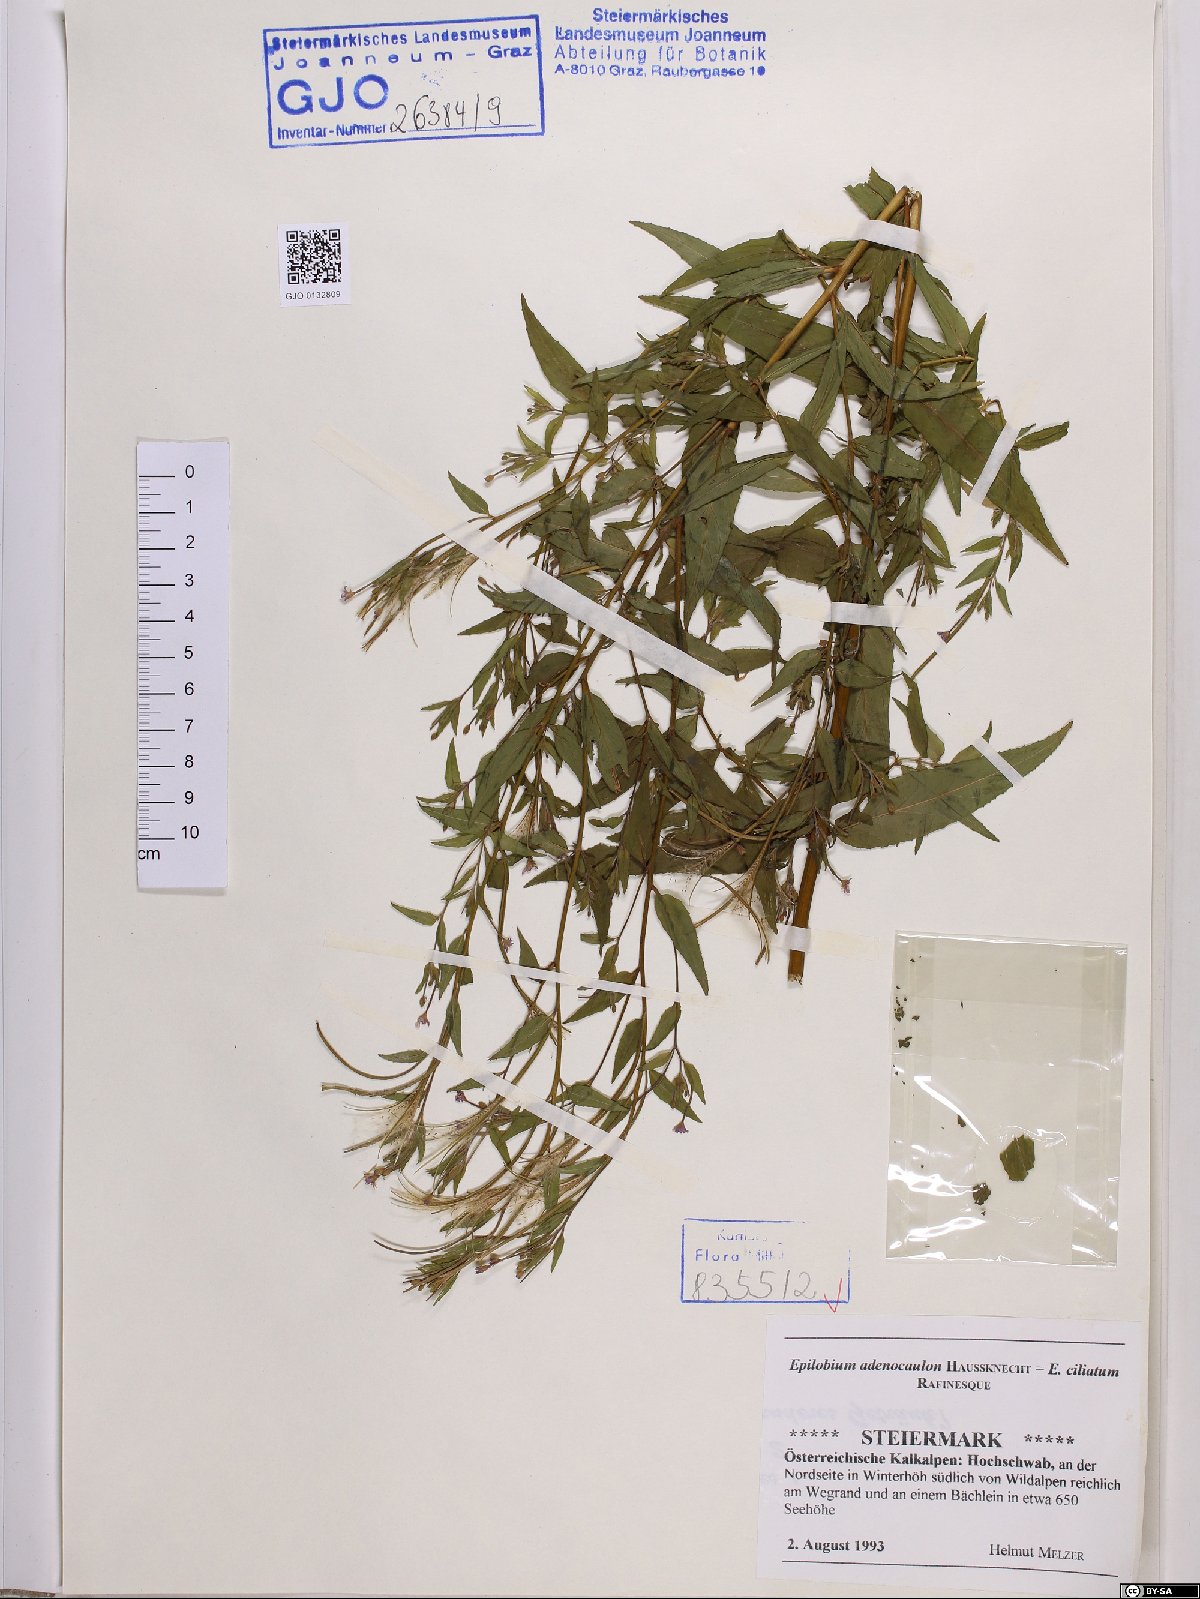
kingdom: Plantae
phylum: Tracheophyta
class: Magnoliopsida
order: Myrtales
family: Onagraceae
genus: Epilobium
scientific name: Epilobium ciliatum
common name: American willowherb
